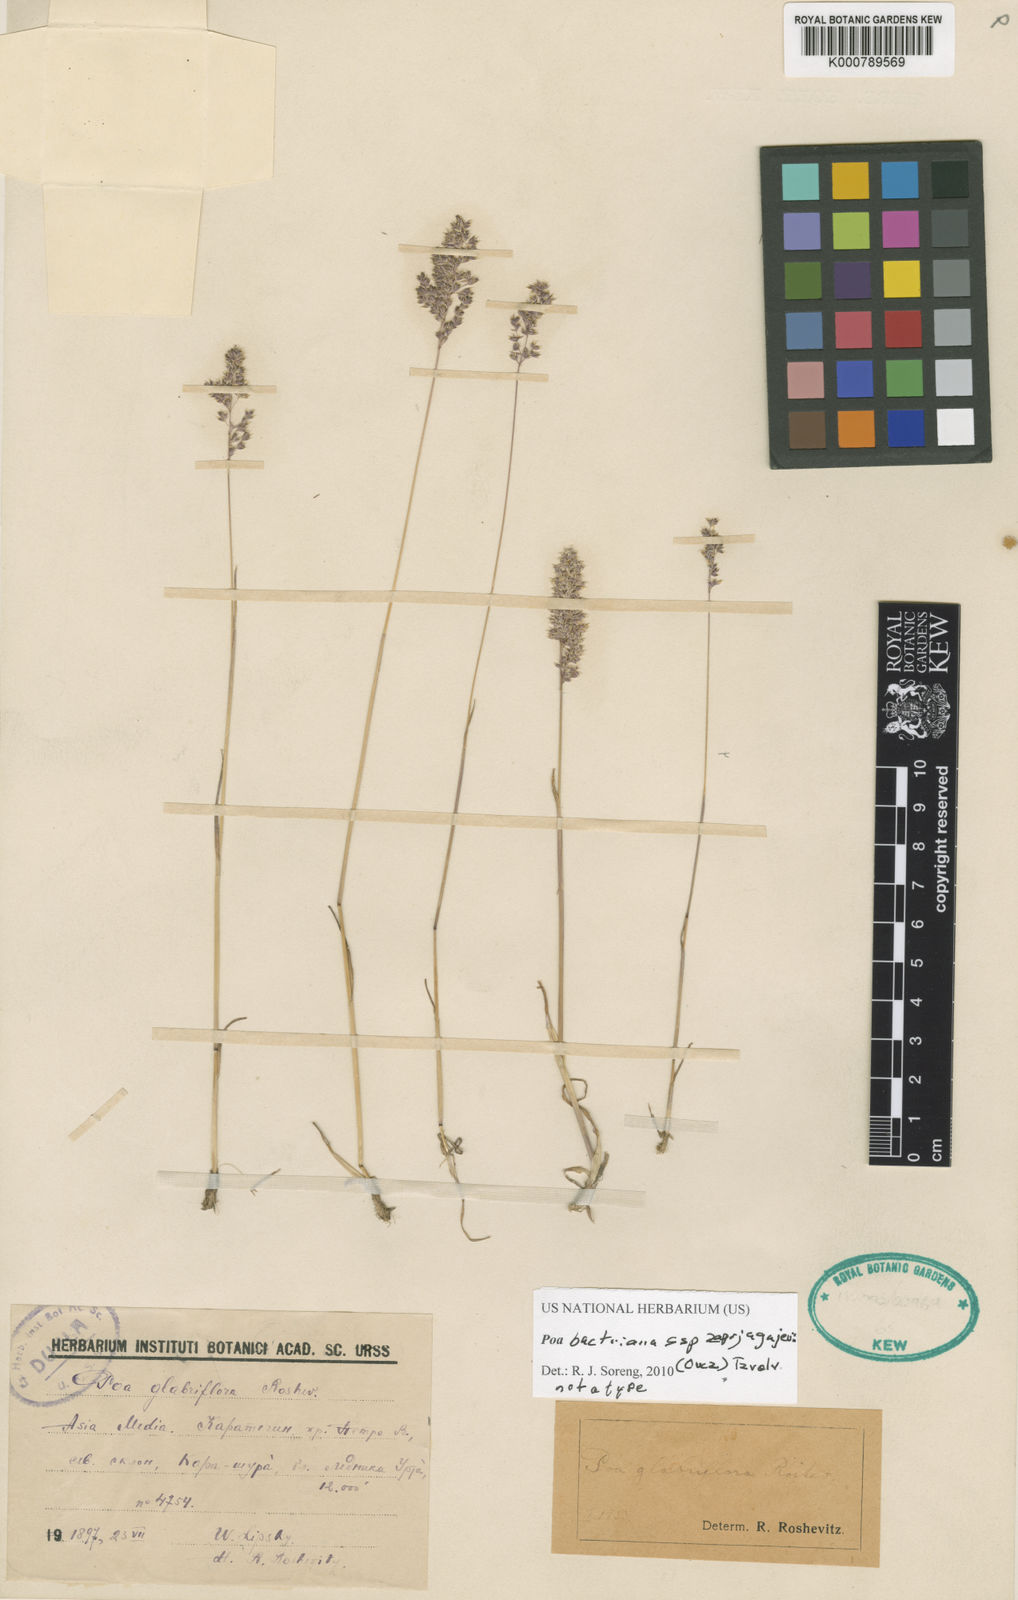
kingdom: Plantae
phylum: Tracheophyta
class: Liliopsida
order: Poales
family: Poaceae
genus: Poa
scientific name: Poa bactriana
